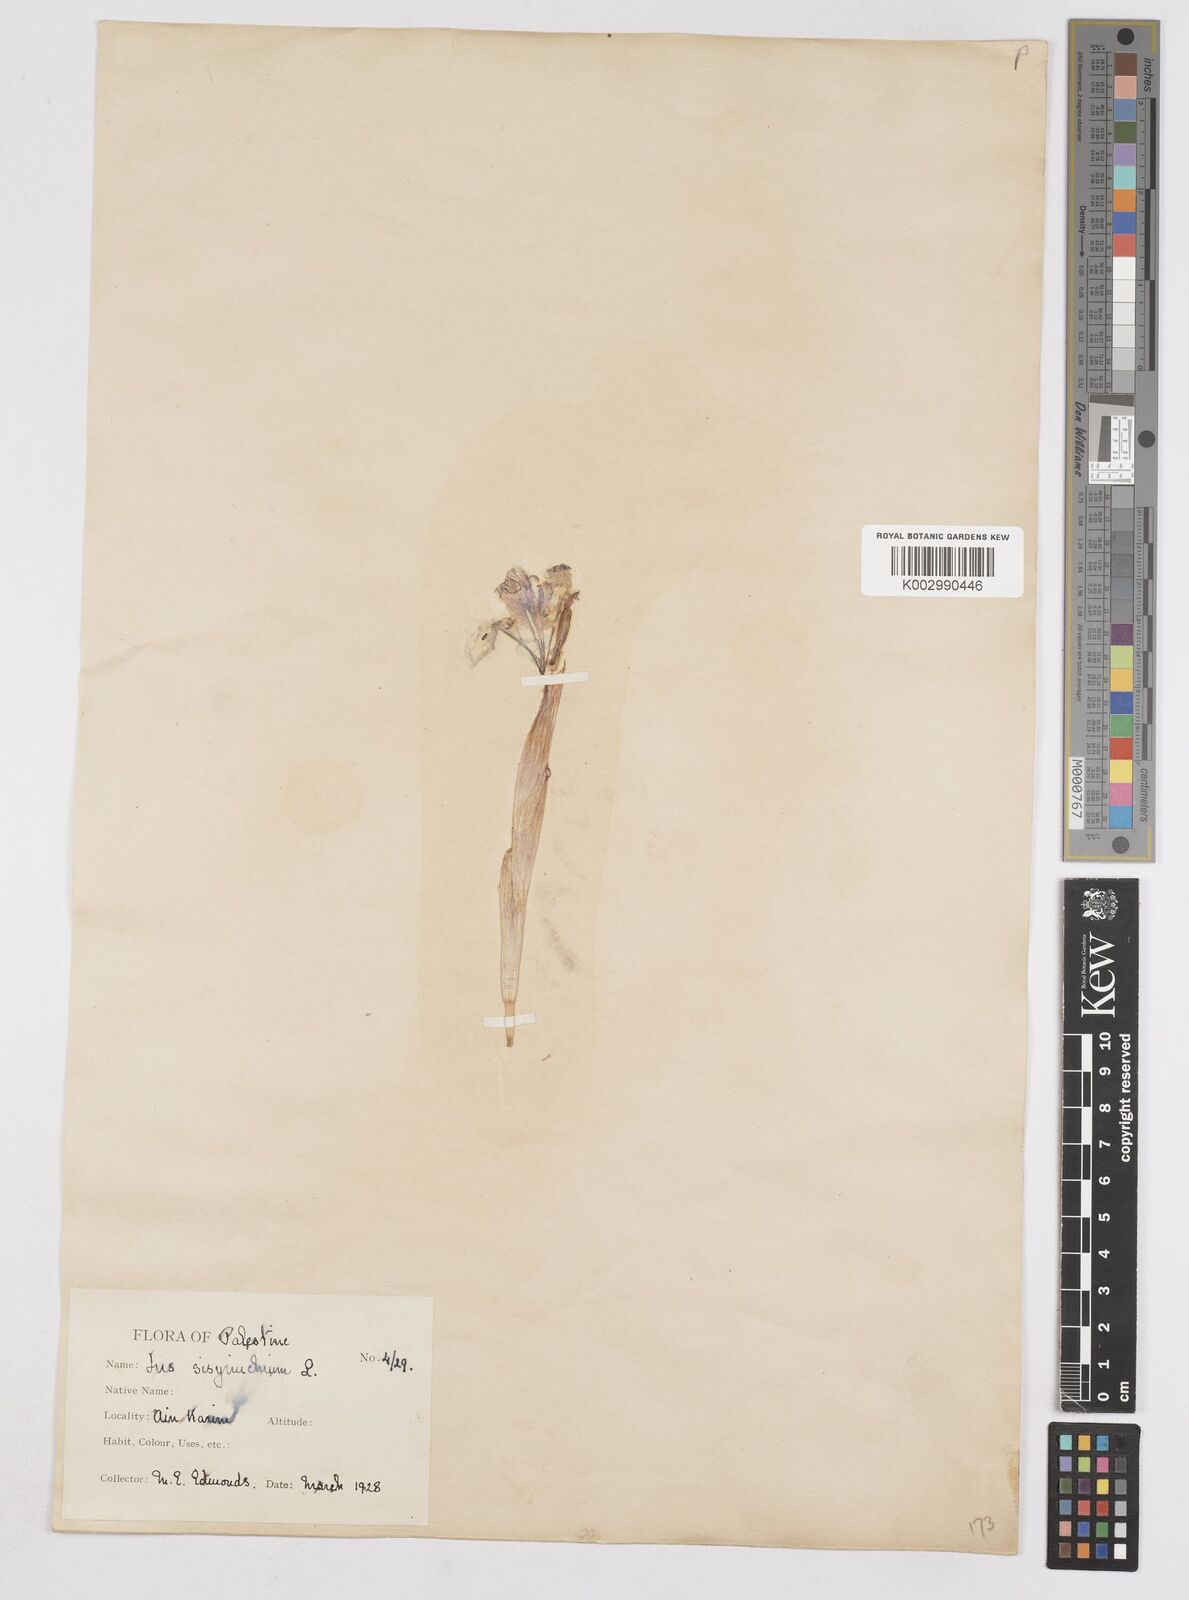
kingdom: Plantae
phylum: Tracheophyta
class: Liliopsida
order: Asparagales
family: Iridaceae
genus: Moraea
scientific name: Moraea sisyrinchium
